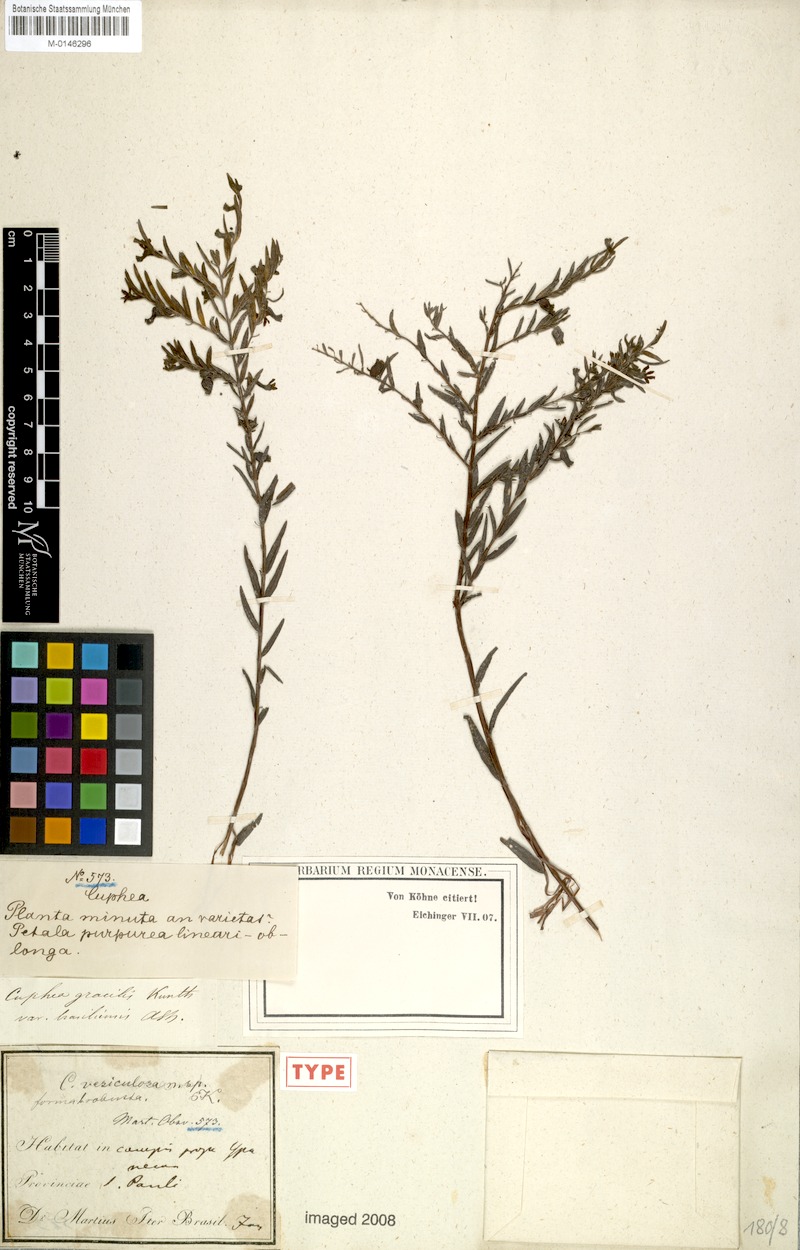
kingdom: Plantae
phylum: Tracheophyta
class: Magnoliopsida
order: Myrtales
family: Lythraceae
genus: Cuphea
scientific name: Cuphea vesiculosa
